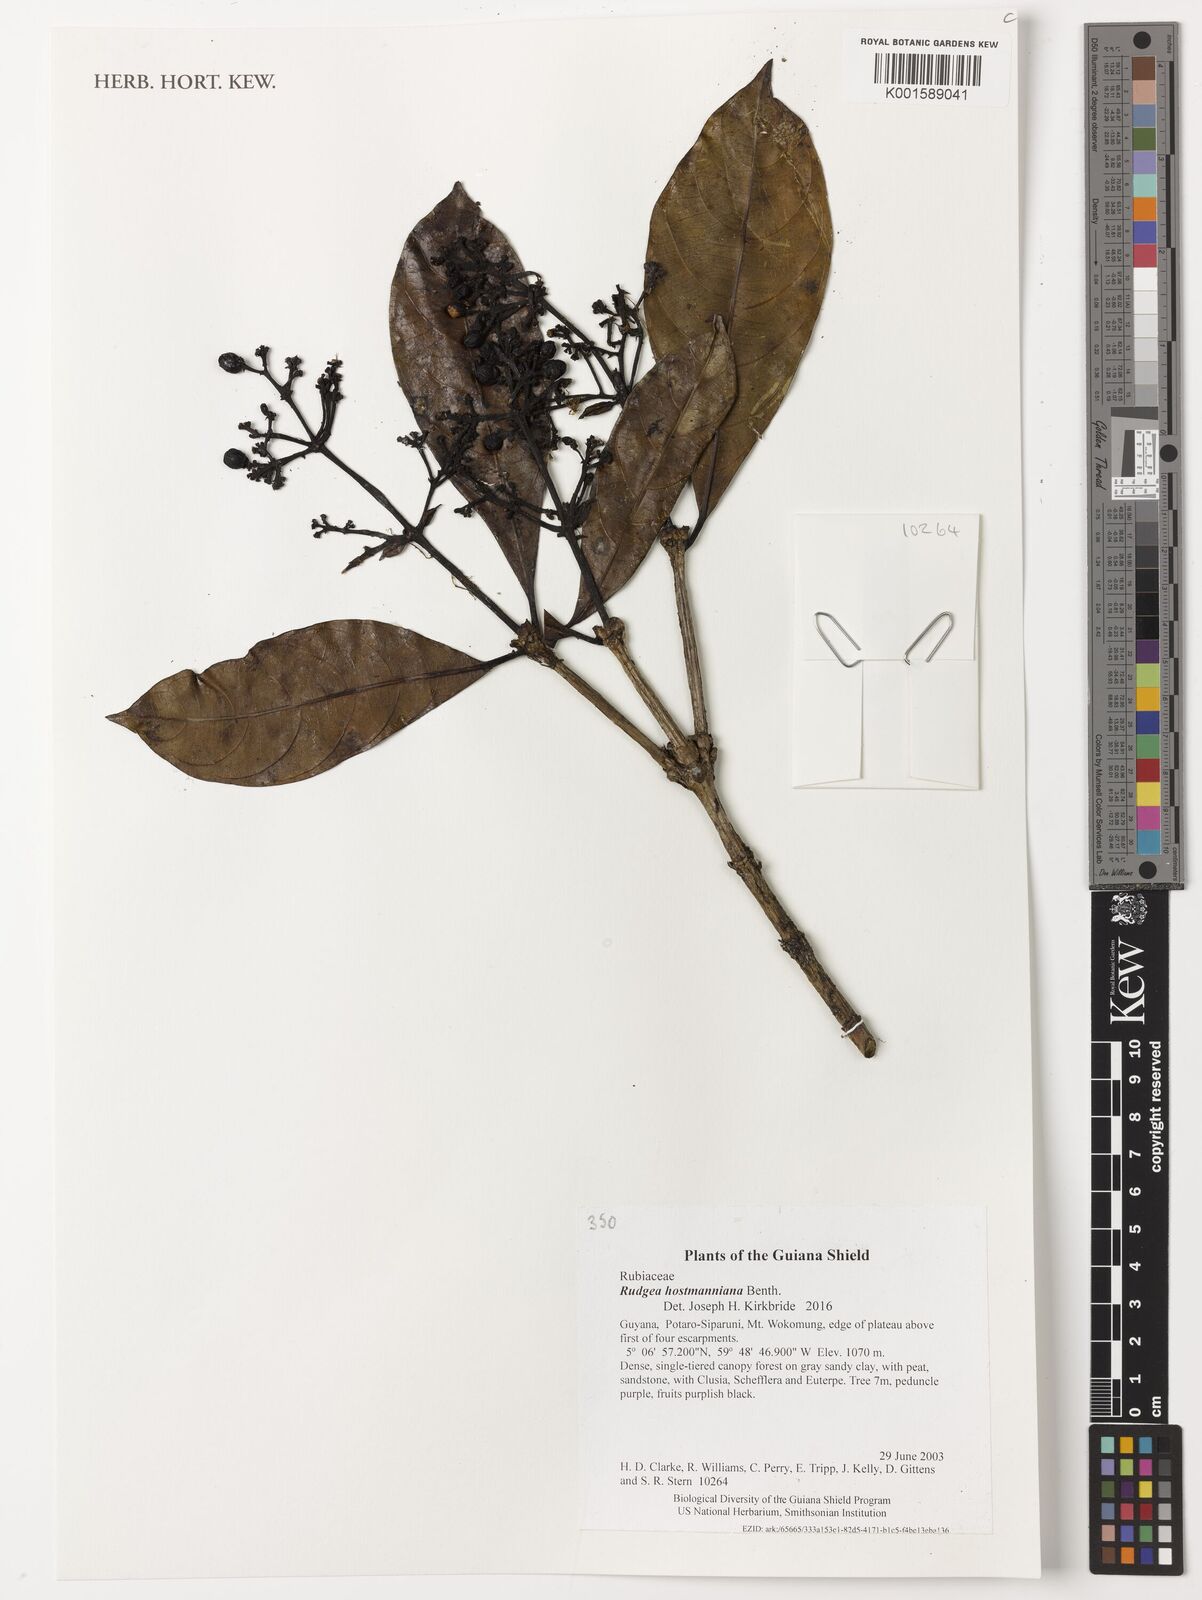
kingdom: Plantae
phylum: Tracheophyta
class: Magnoliopsida
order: Gentianales
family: Rubiaceae
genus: Palicourea
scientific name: Palicourea coussareoides
